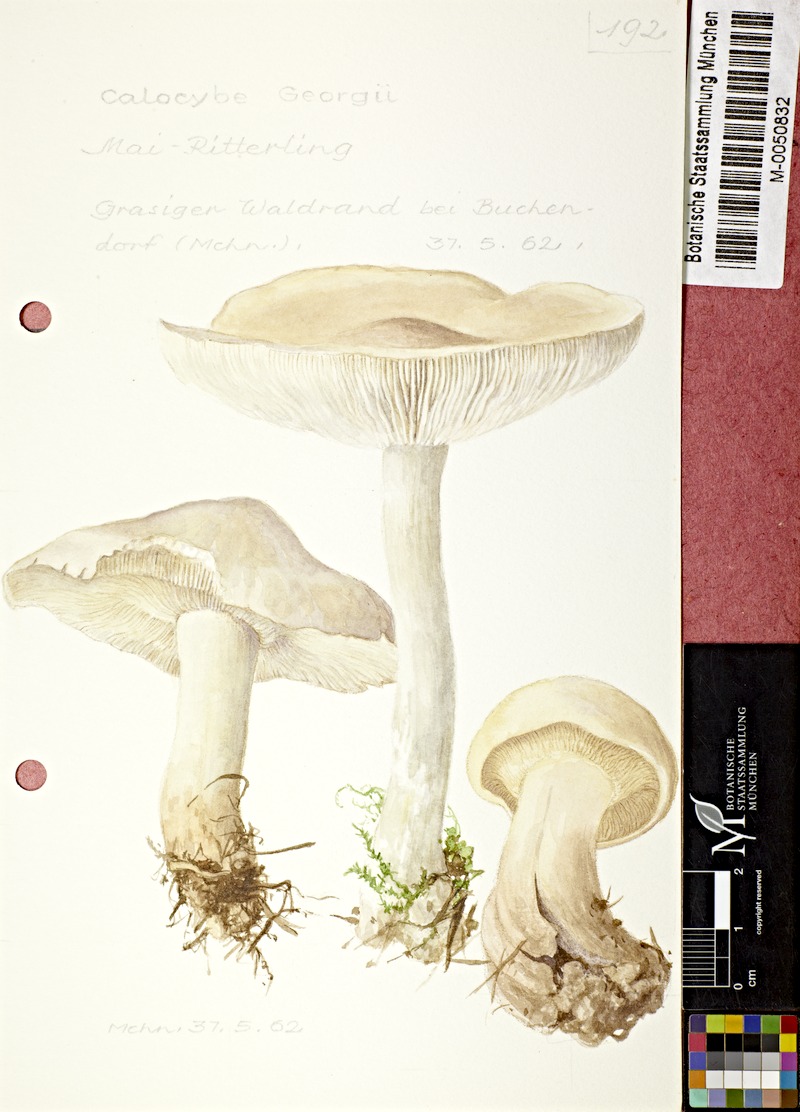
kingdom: Fungi
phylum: Basidiomycota
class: Agaricomycetes
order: Agaricales
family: Lyophyllaceae
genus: Calocybe
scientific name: Calocybe gambosa
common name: St. george's mushroom
